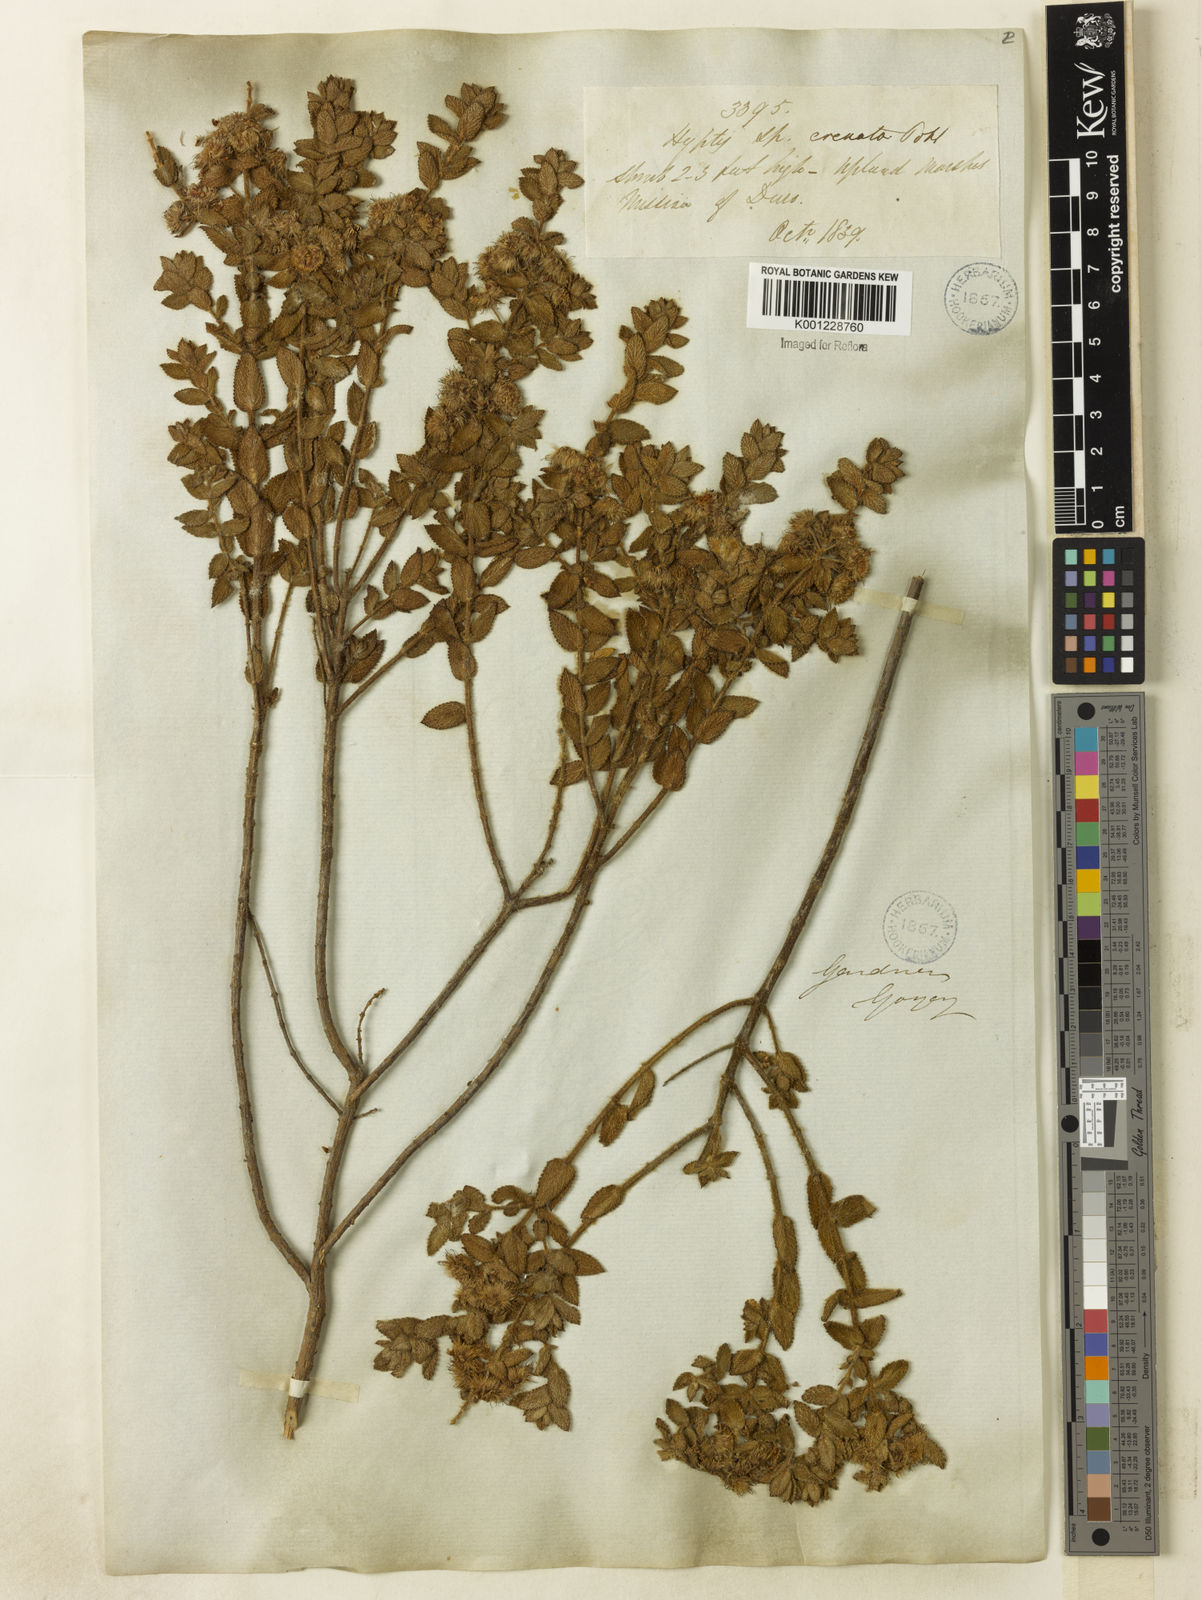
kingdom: Plantae
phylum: Tracheophyta
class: Magnoliopsida
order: Lamiales
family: Lamiaceae
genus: Hyptis
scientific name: Hyptis crenata
